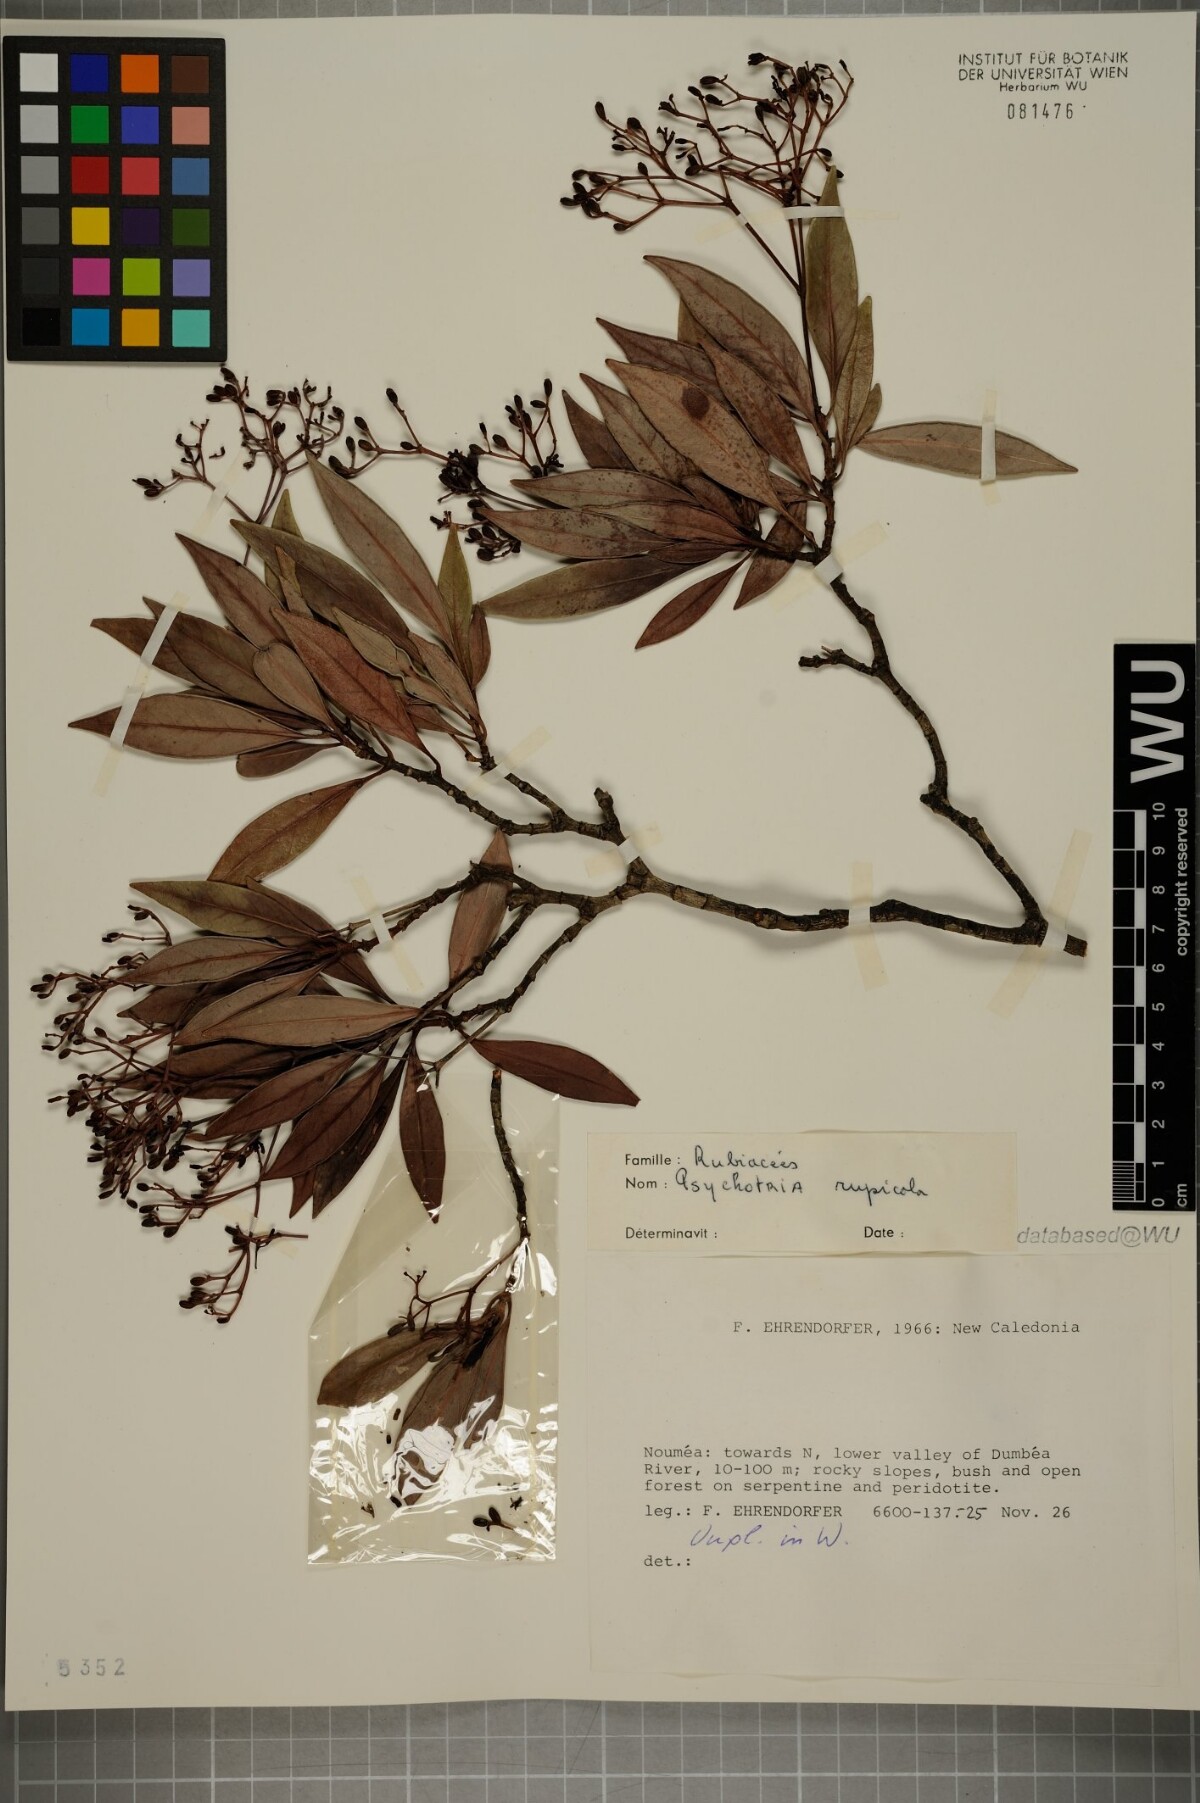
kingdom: Plantae
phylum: Tracheophyta
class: Magnoliopsida
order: Gentianales
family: Rubiaceae
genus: Psychotria
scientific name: Psychotria rupicola
